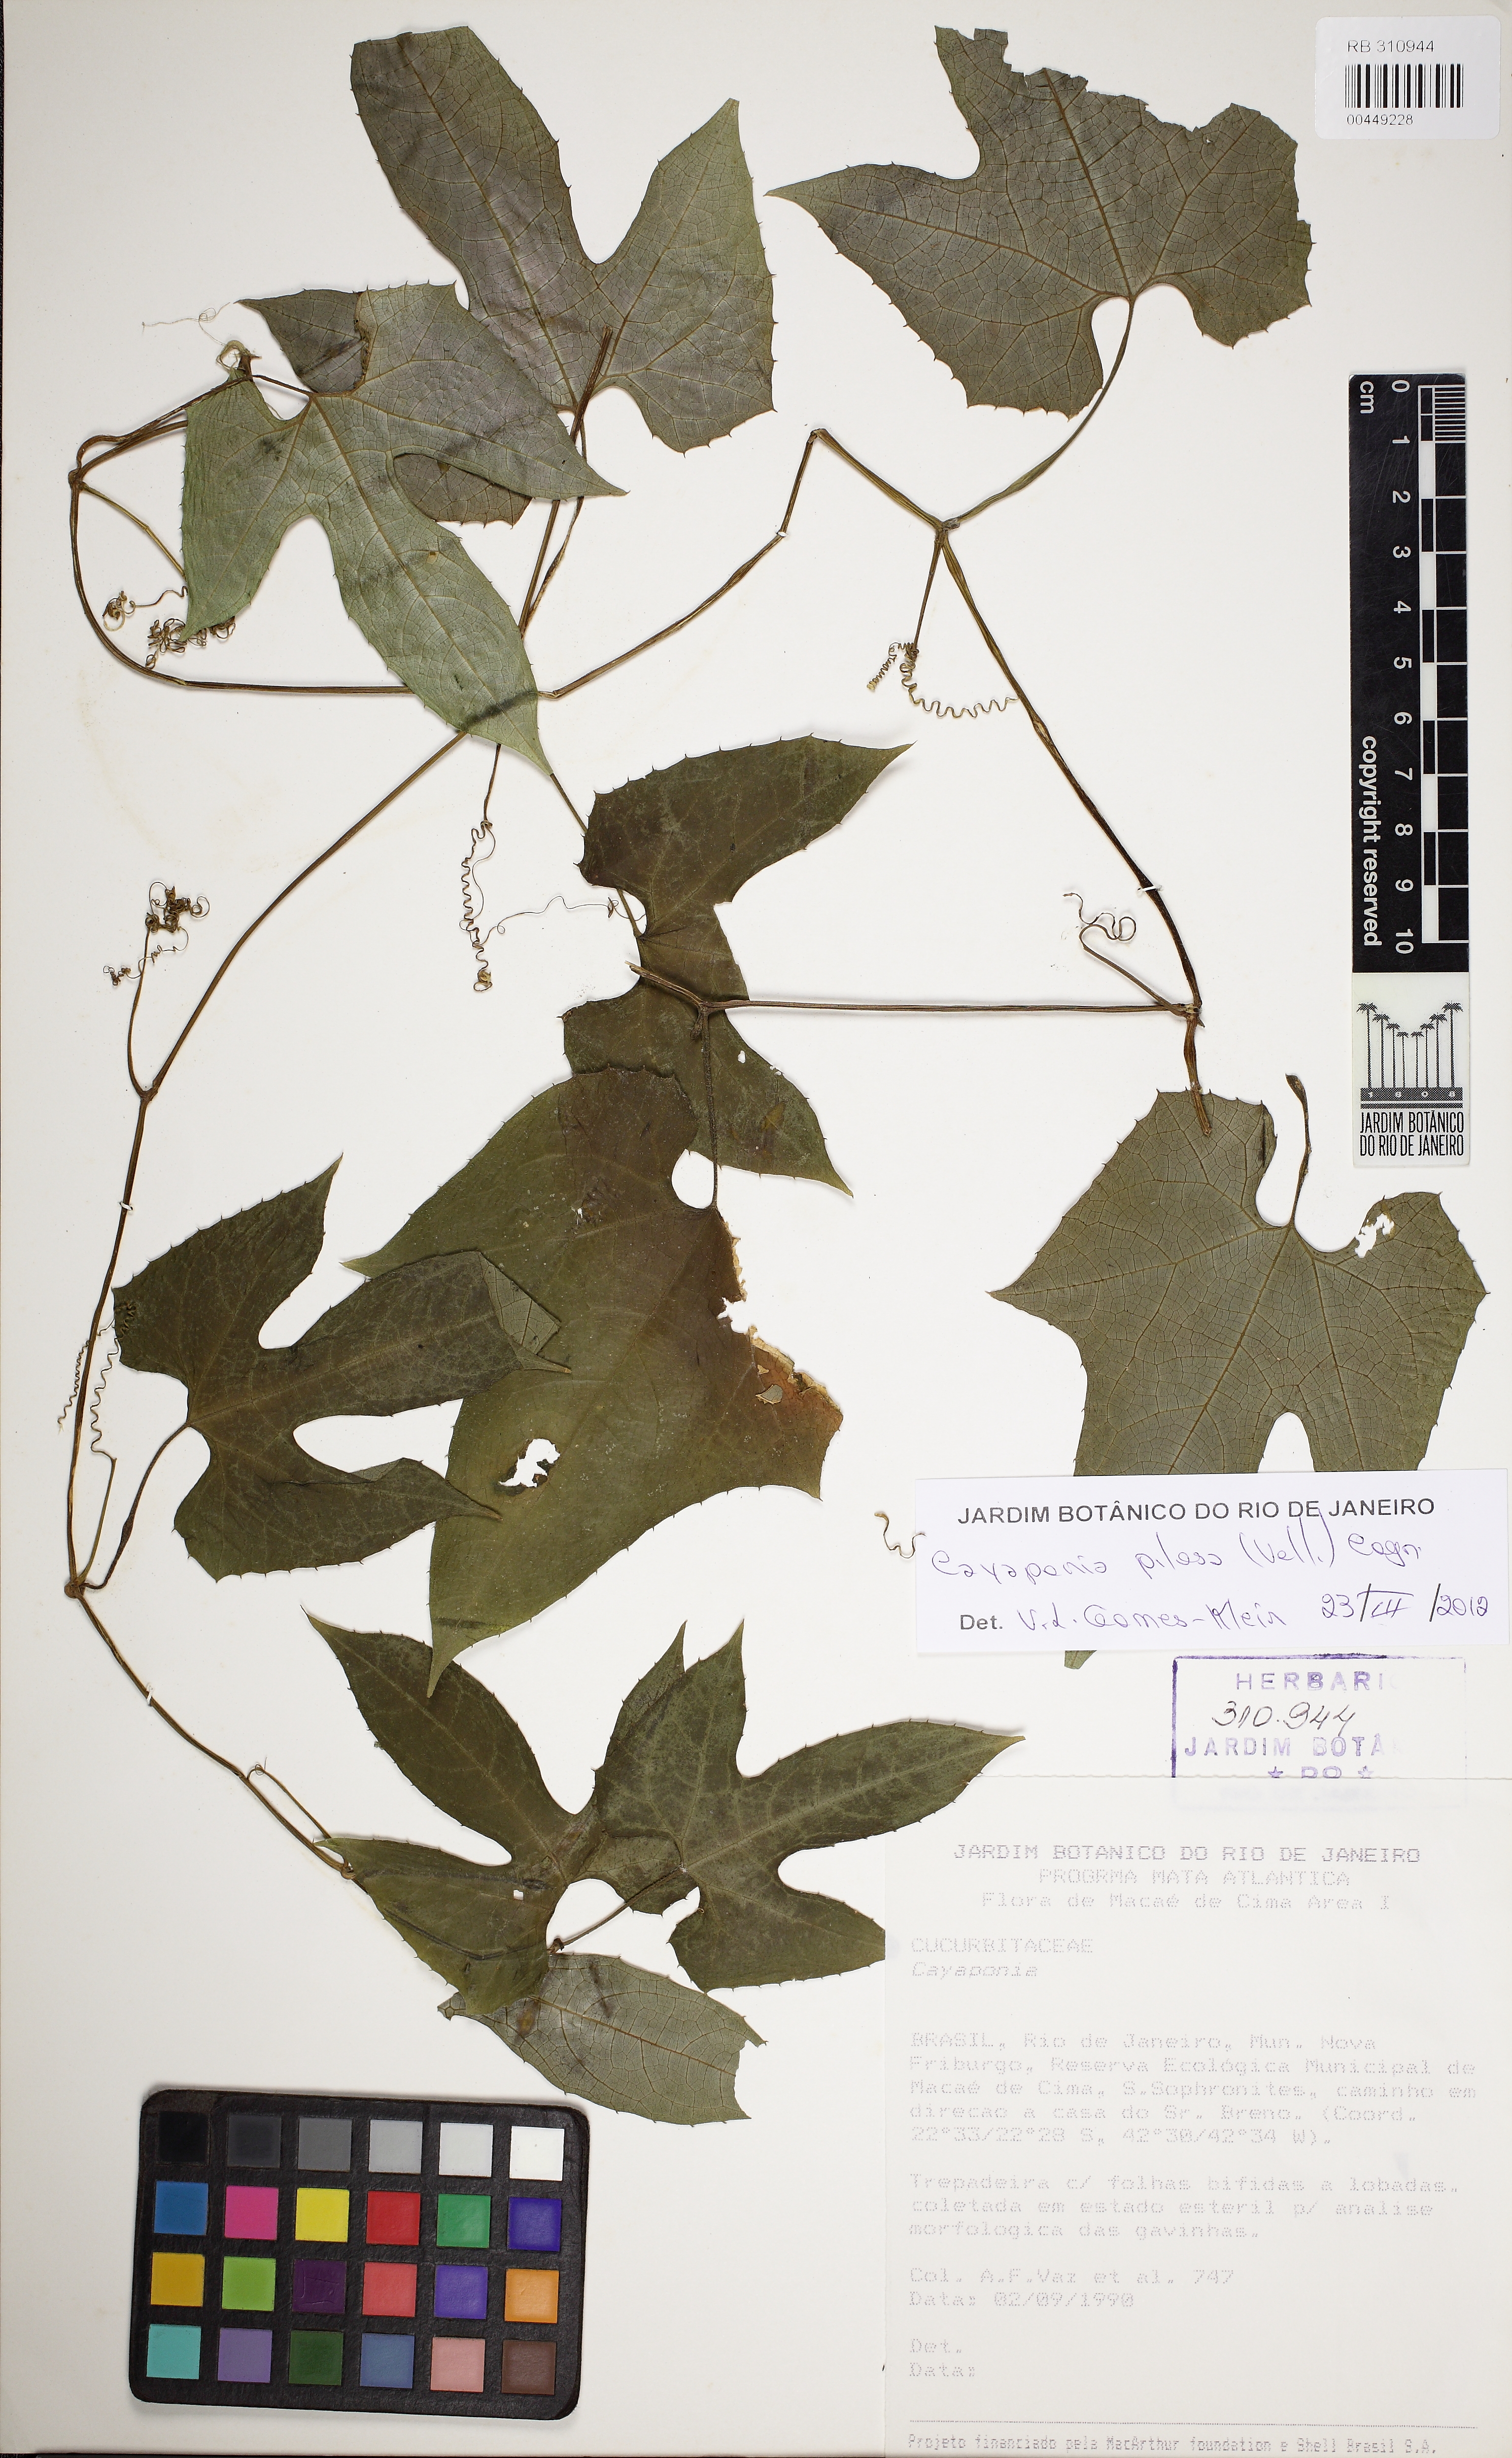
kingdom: Plantae
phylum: Tracheophyta
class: Magnoliopsida
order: Cucurbitales
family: Cucurbitaceae
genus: Cayaponia
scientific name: Cayaponia pilosa
